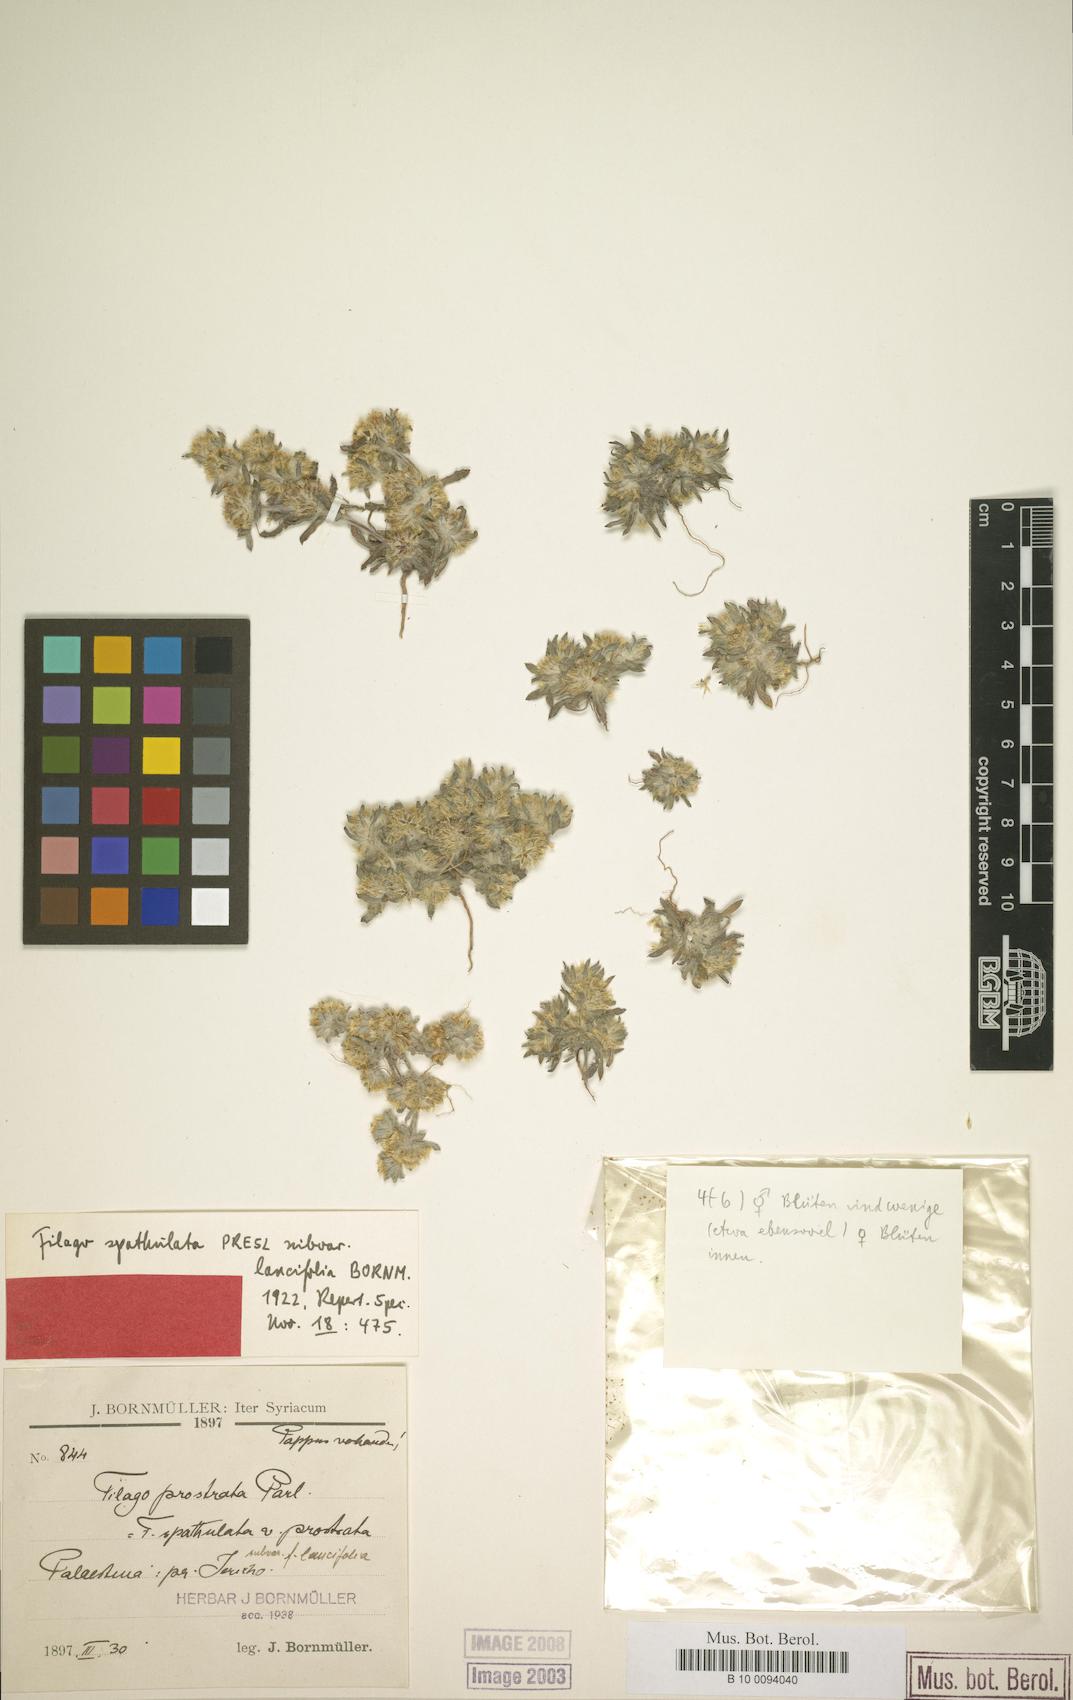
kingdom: Plantae
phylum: Tracheophyta
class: Magnoliopsida
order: Asterales
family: Asteraceae
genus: Filago
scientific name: Filago desertorum
